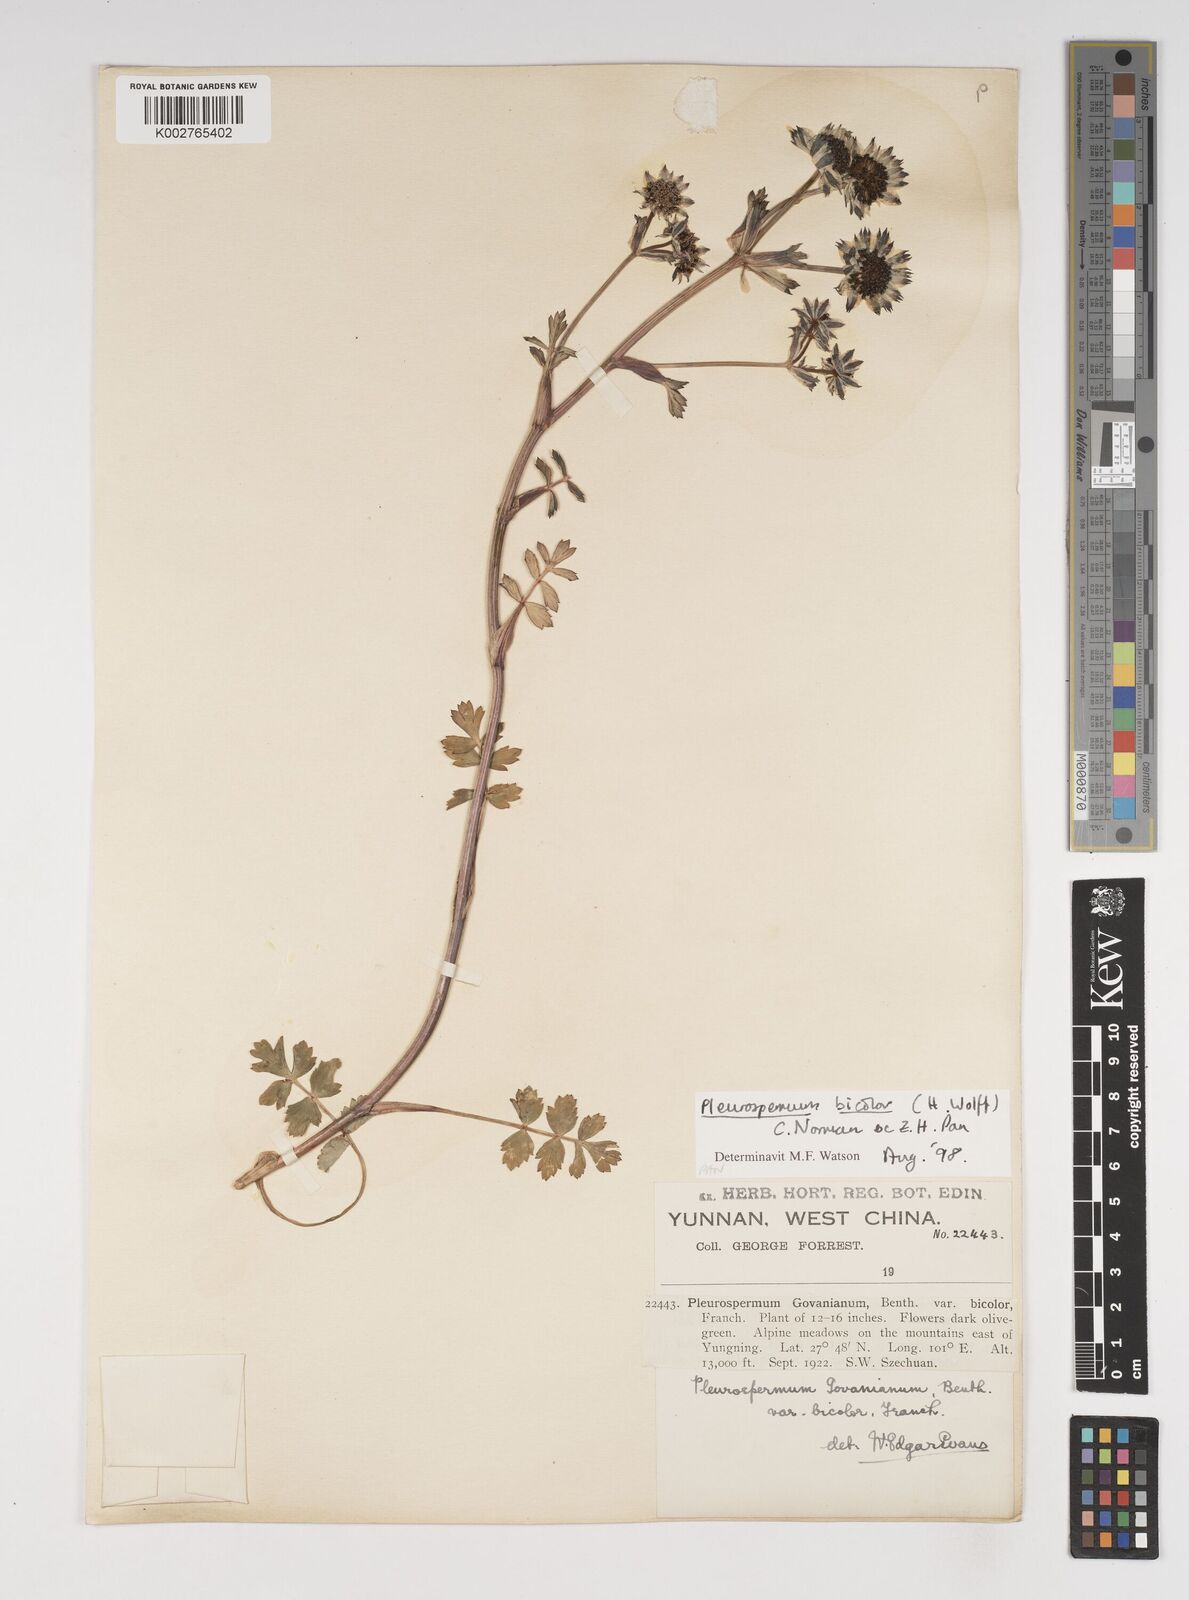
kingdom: Plantae
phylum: Tracheophyta
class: Magnoliopsida
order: Apiales
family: Apiaceae
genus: Pleurospermopsis
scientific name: Pleurospermopsis bicolor
